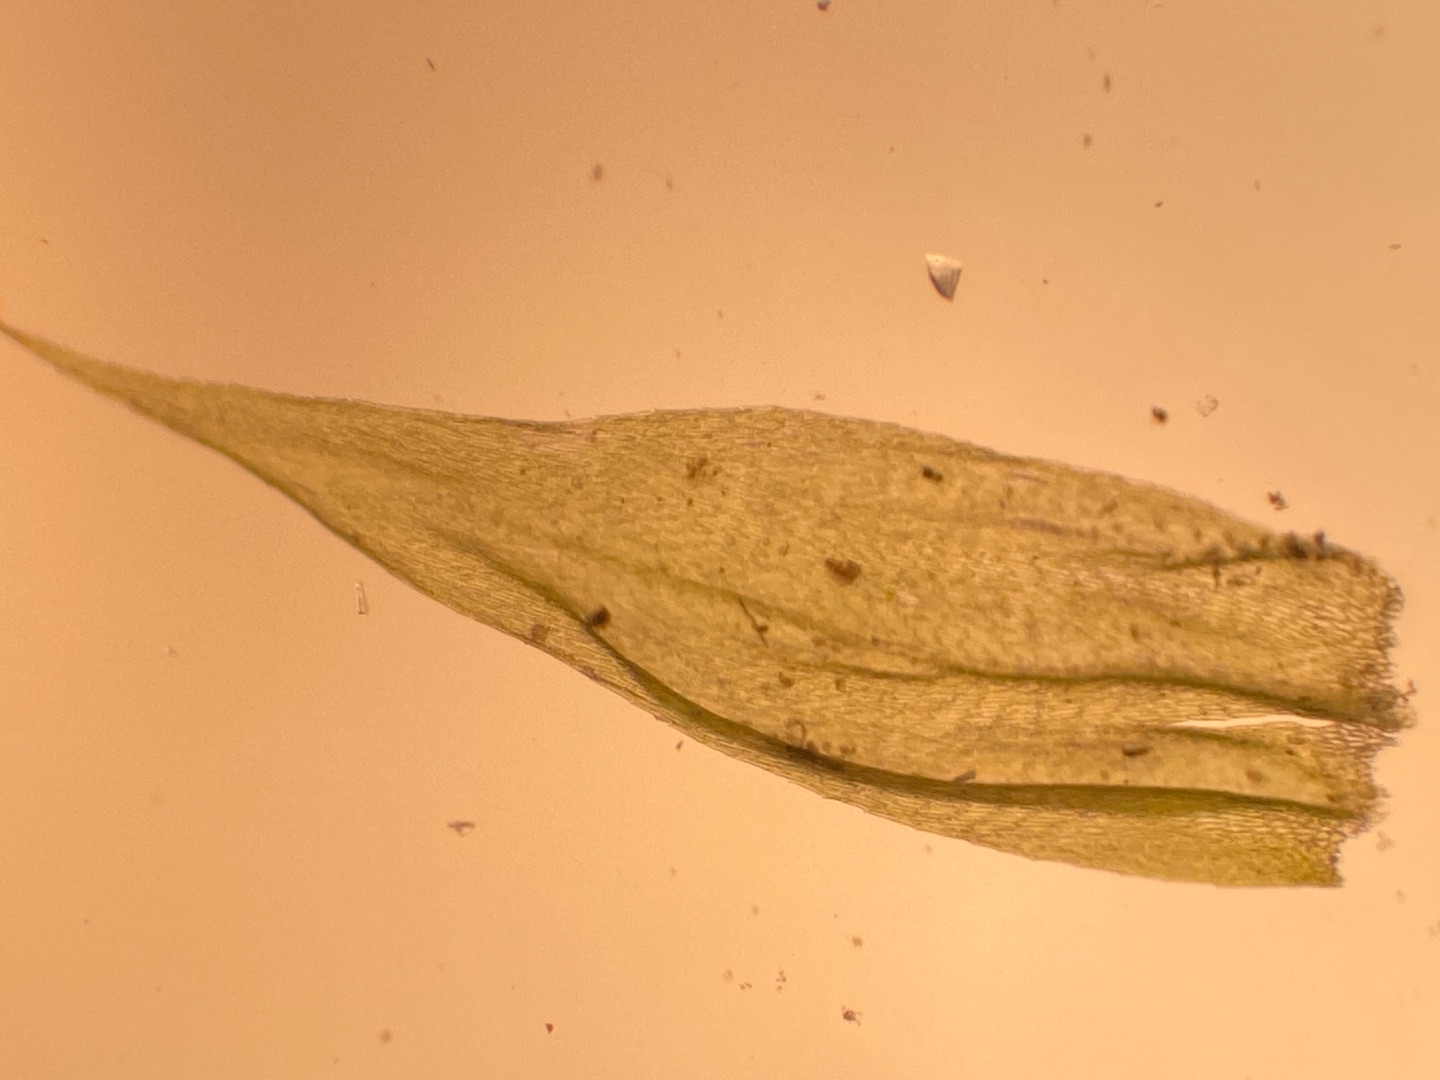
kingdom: Plantae
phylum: Bryophyta
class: Bryopsida
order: Hypnales
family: Brachytheciaceae
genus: Brachythecium
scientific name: Brachythecium salebrosum
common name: Skov-kortkapsel
